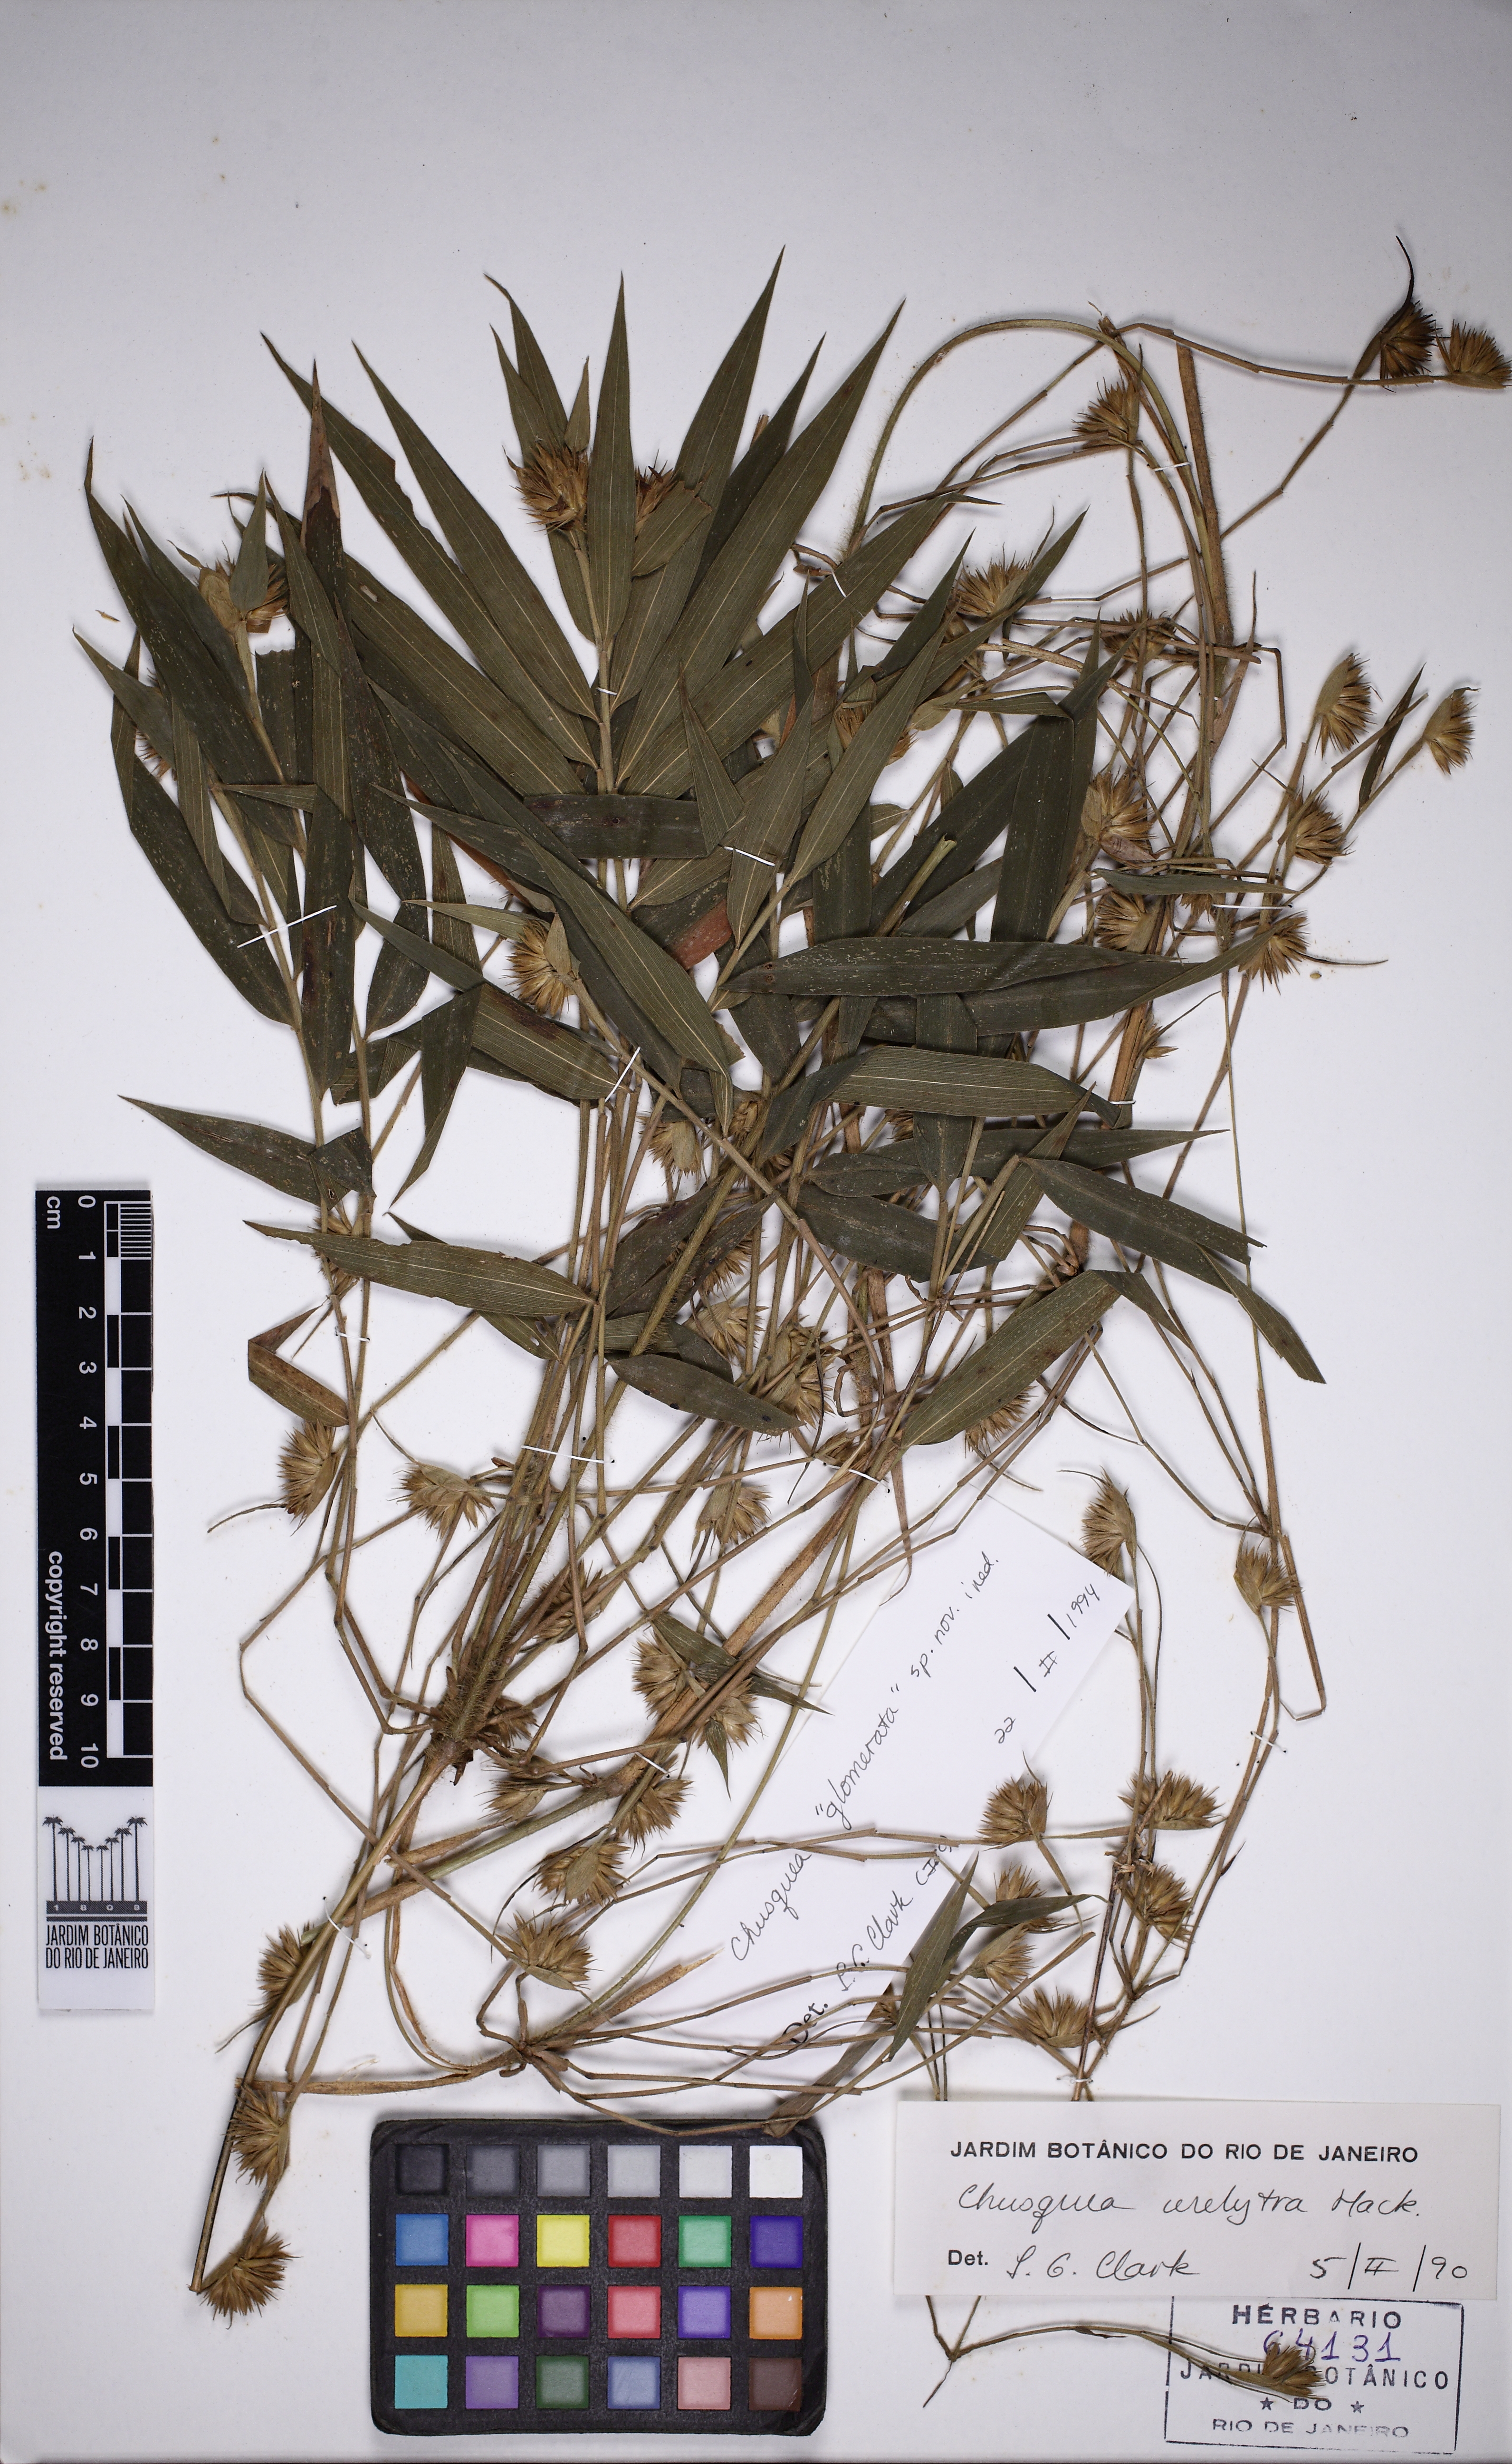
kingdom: Plantae
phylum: Tracheophyta
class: Liliopsida
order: Poales
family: Poaceae
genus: Chusquea
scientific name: Chusquea bradei
